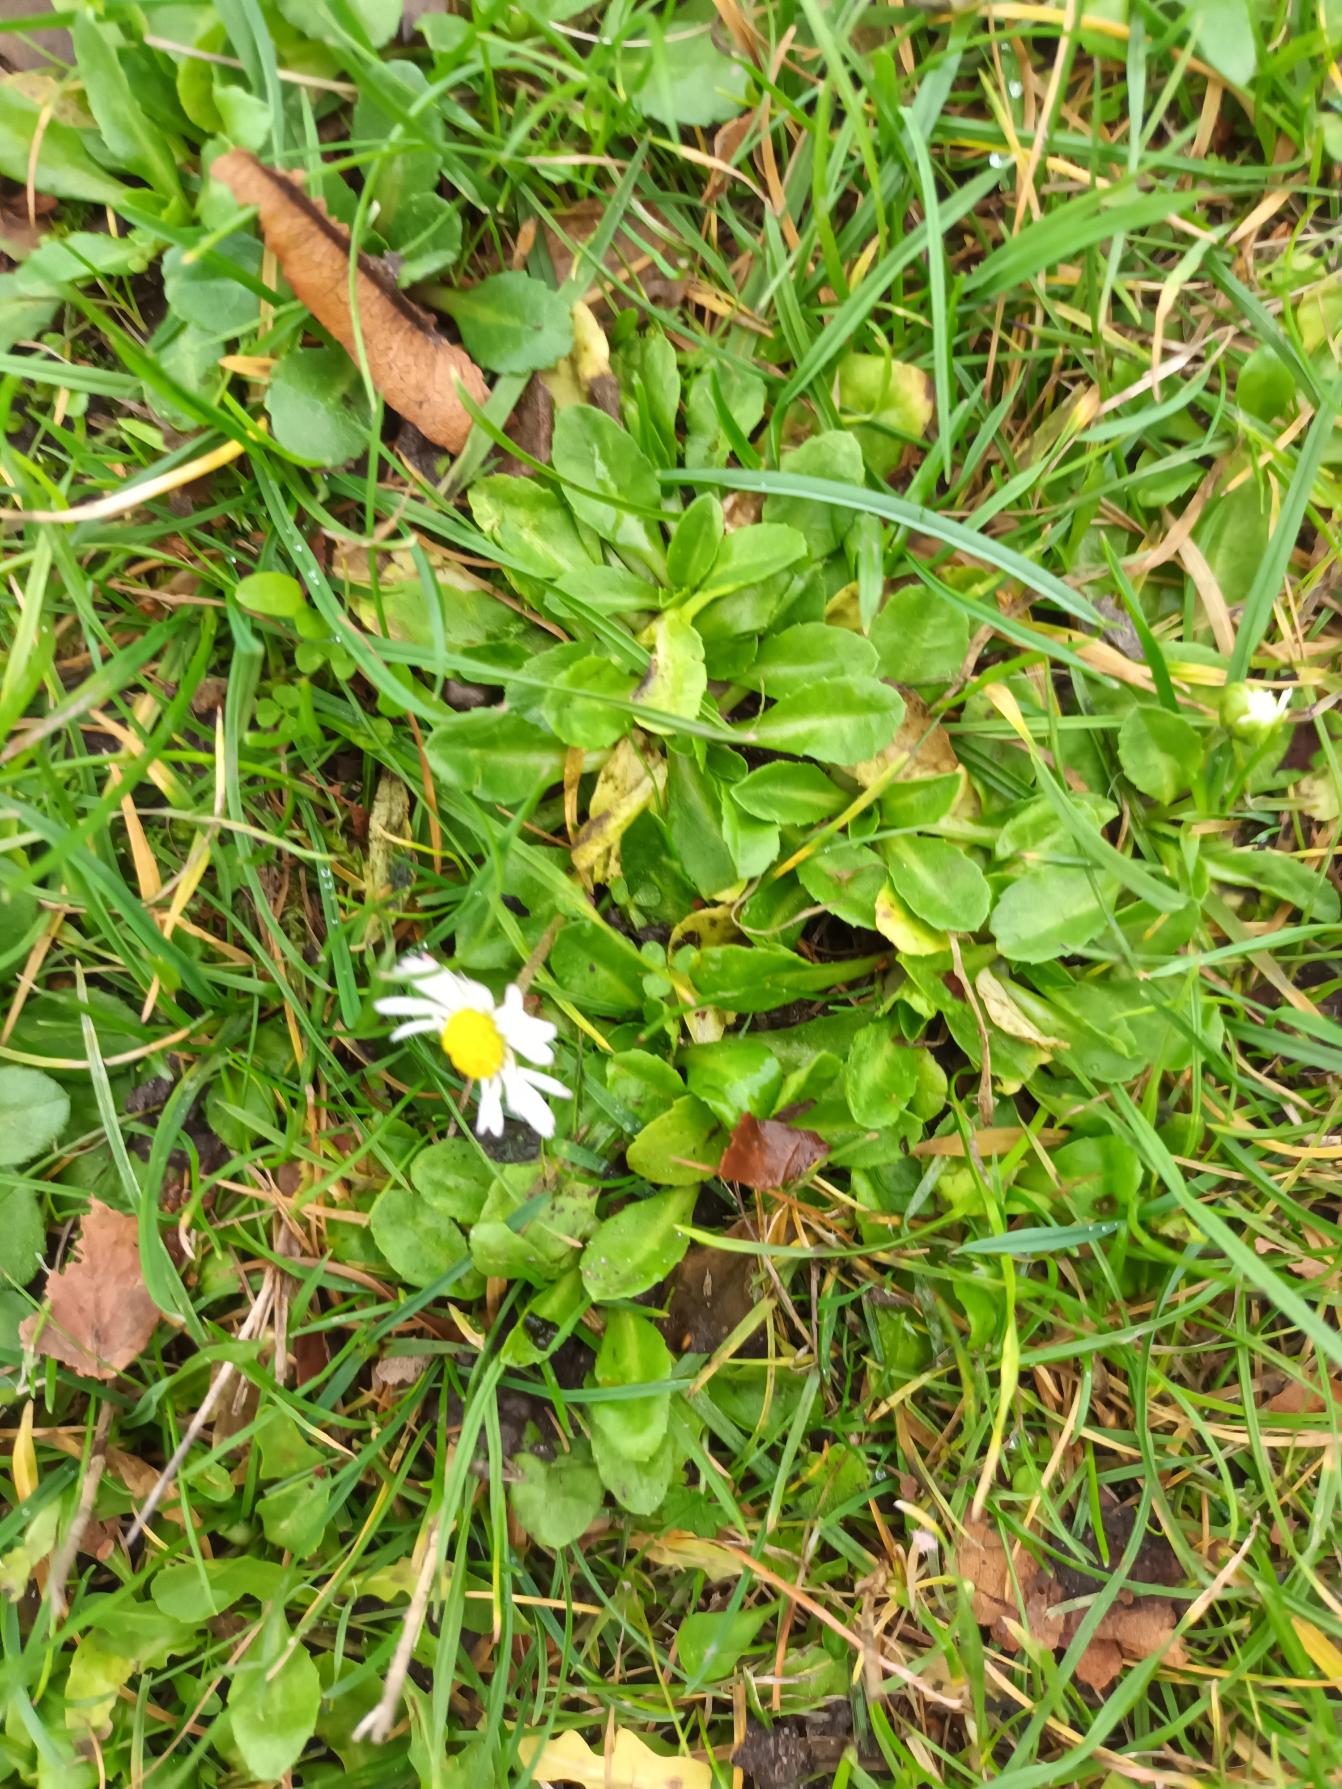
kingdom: Plantae
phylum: Tracheophyta
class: Magnoliopsida
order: Asterales
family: Asteraceae
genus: Bellis
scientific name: Bellis perennis
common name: Tusindfryd
